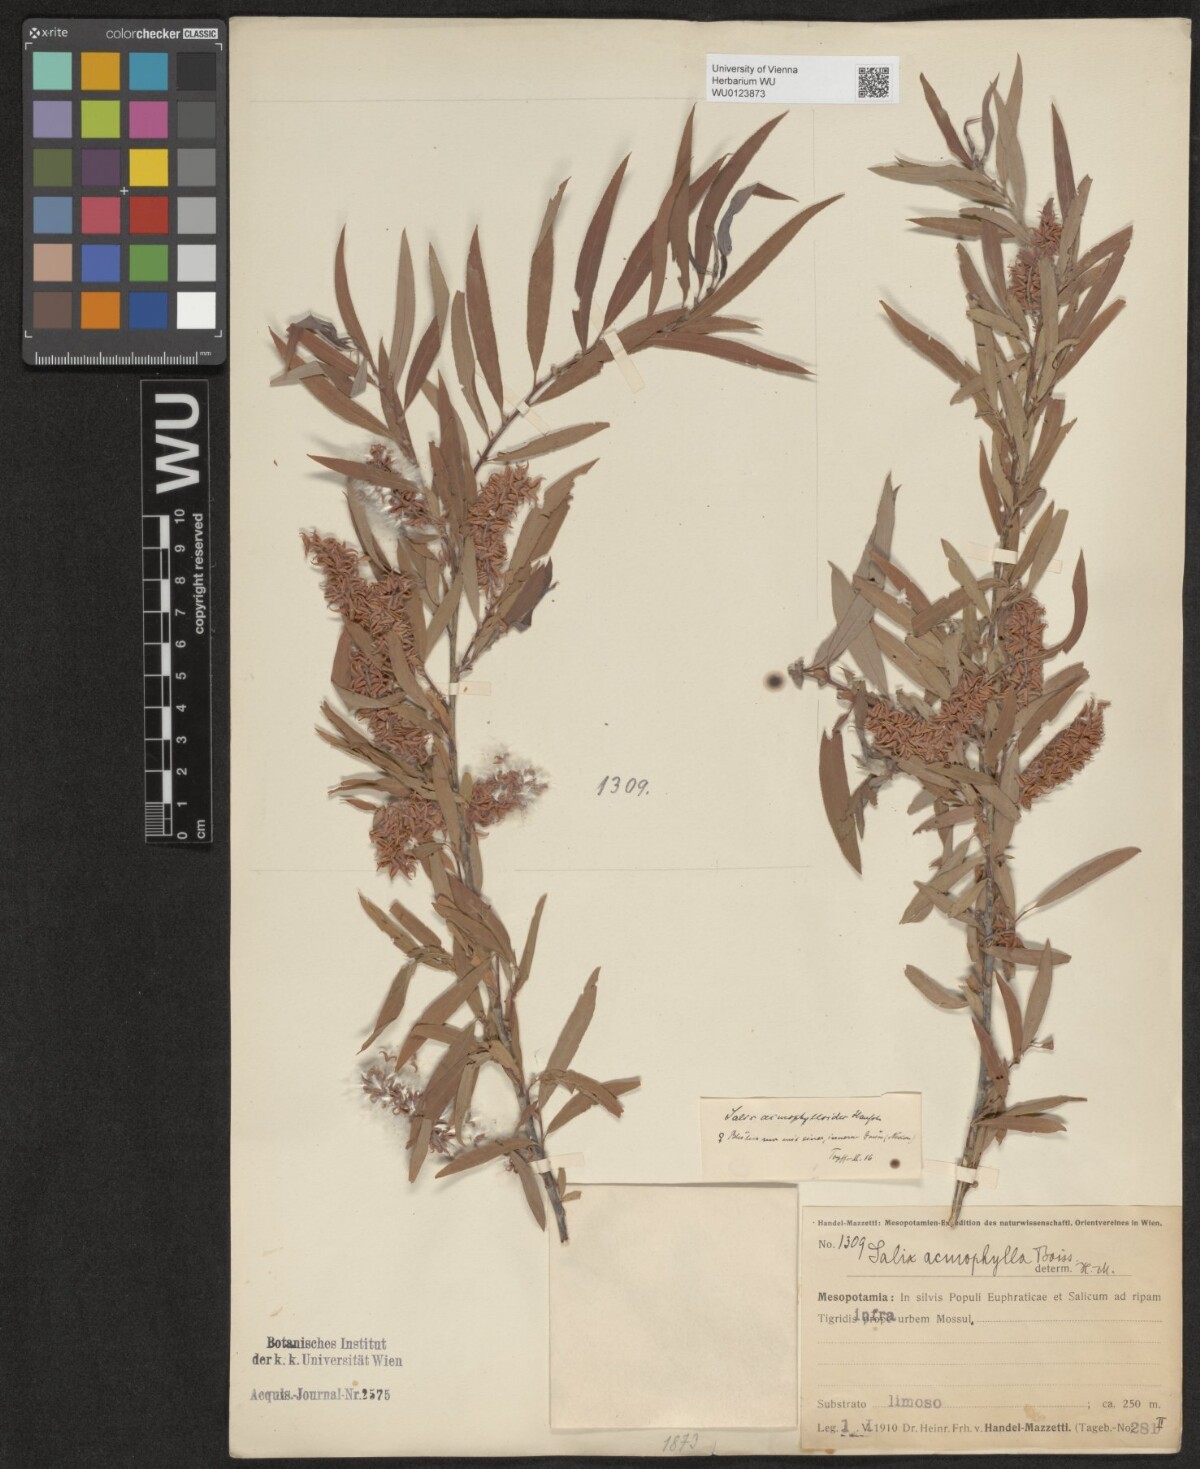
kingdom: Plantae
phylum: Tracheophyta
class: Magnoliopsida
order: Malpighiales
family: Salicaceae
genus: Salix
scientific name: Salix
